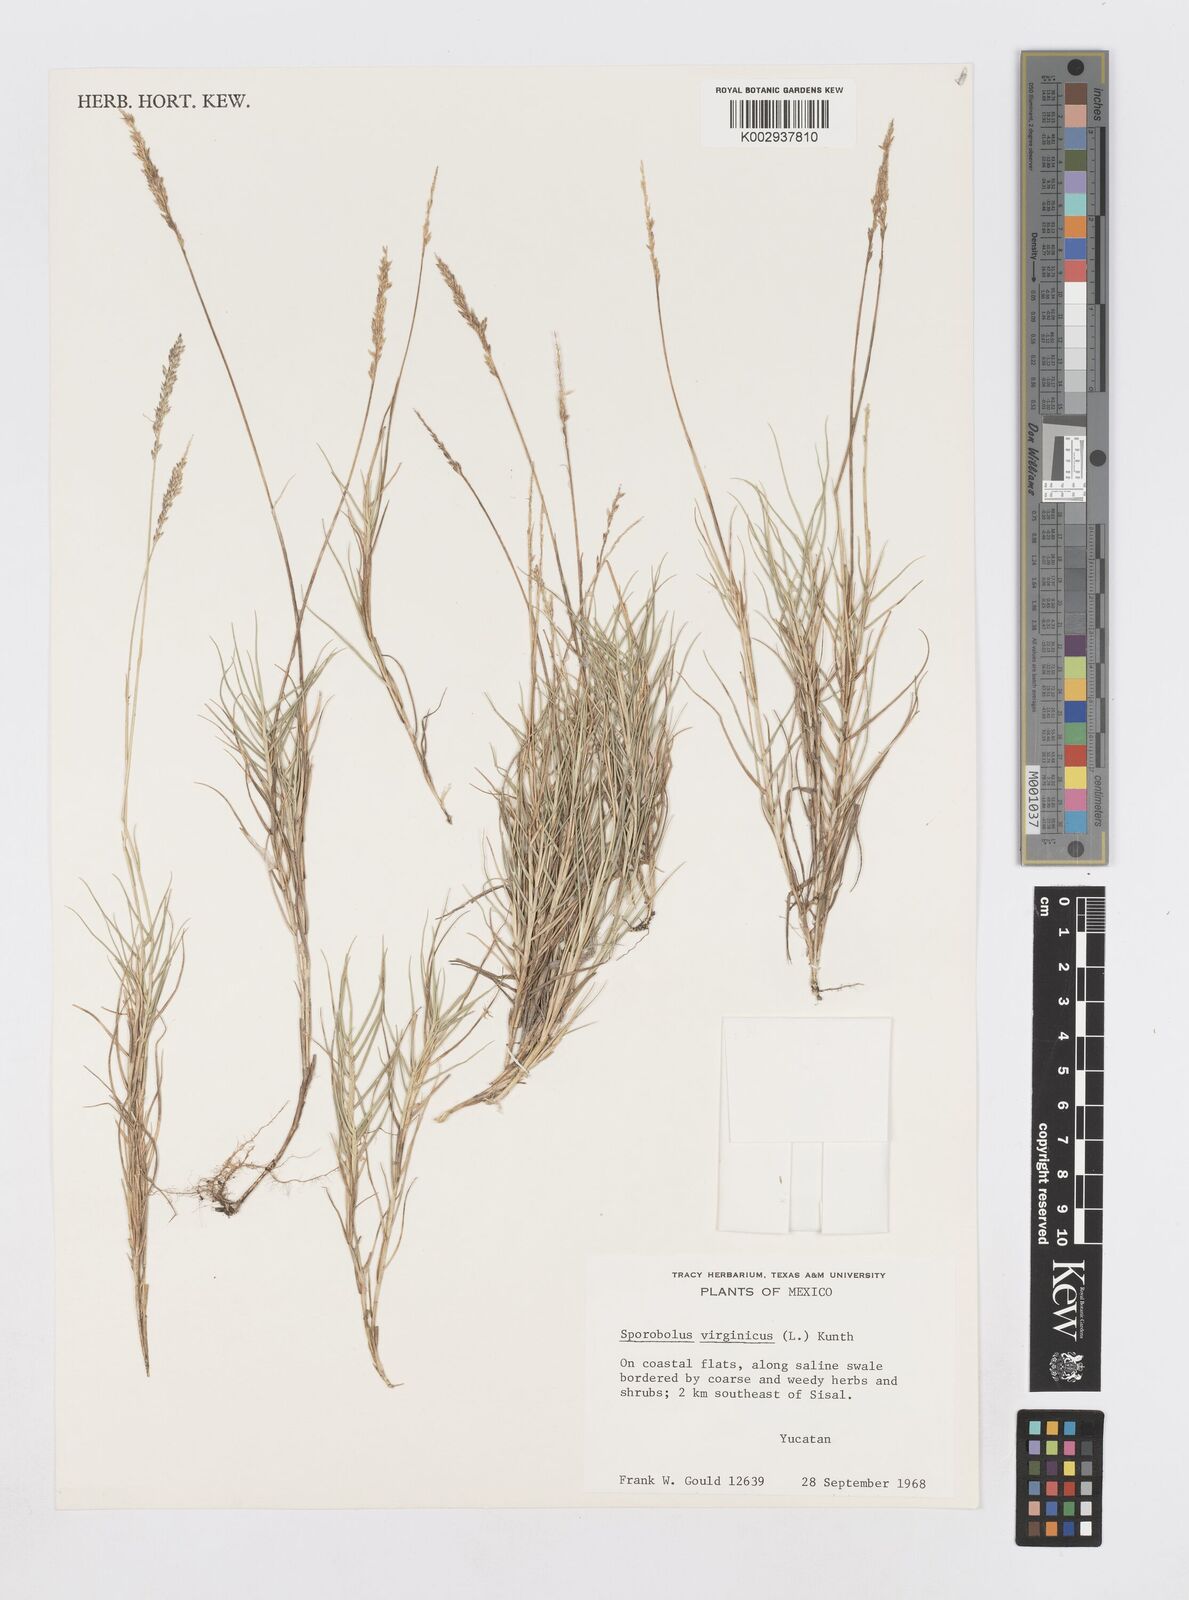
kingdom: Plantae
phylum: Tracheophyta
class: Liliopsida
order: Poales
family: Poaceae
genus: Sporobolus
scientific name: Sporobolus virginicus
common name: Beach dropseed
